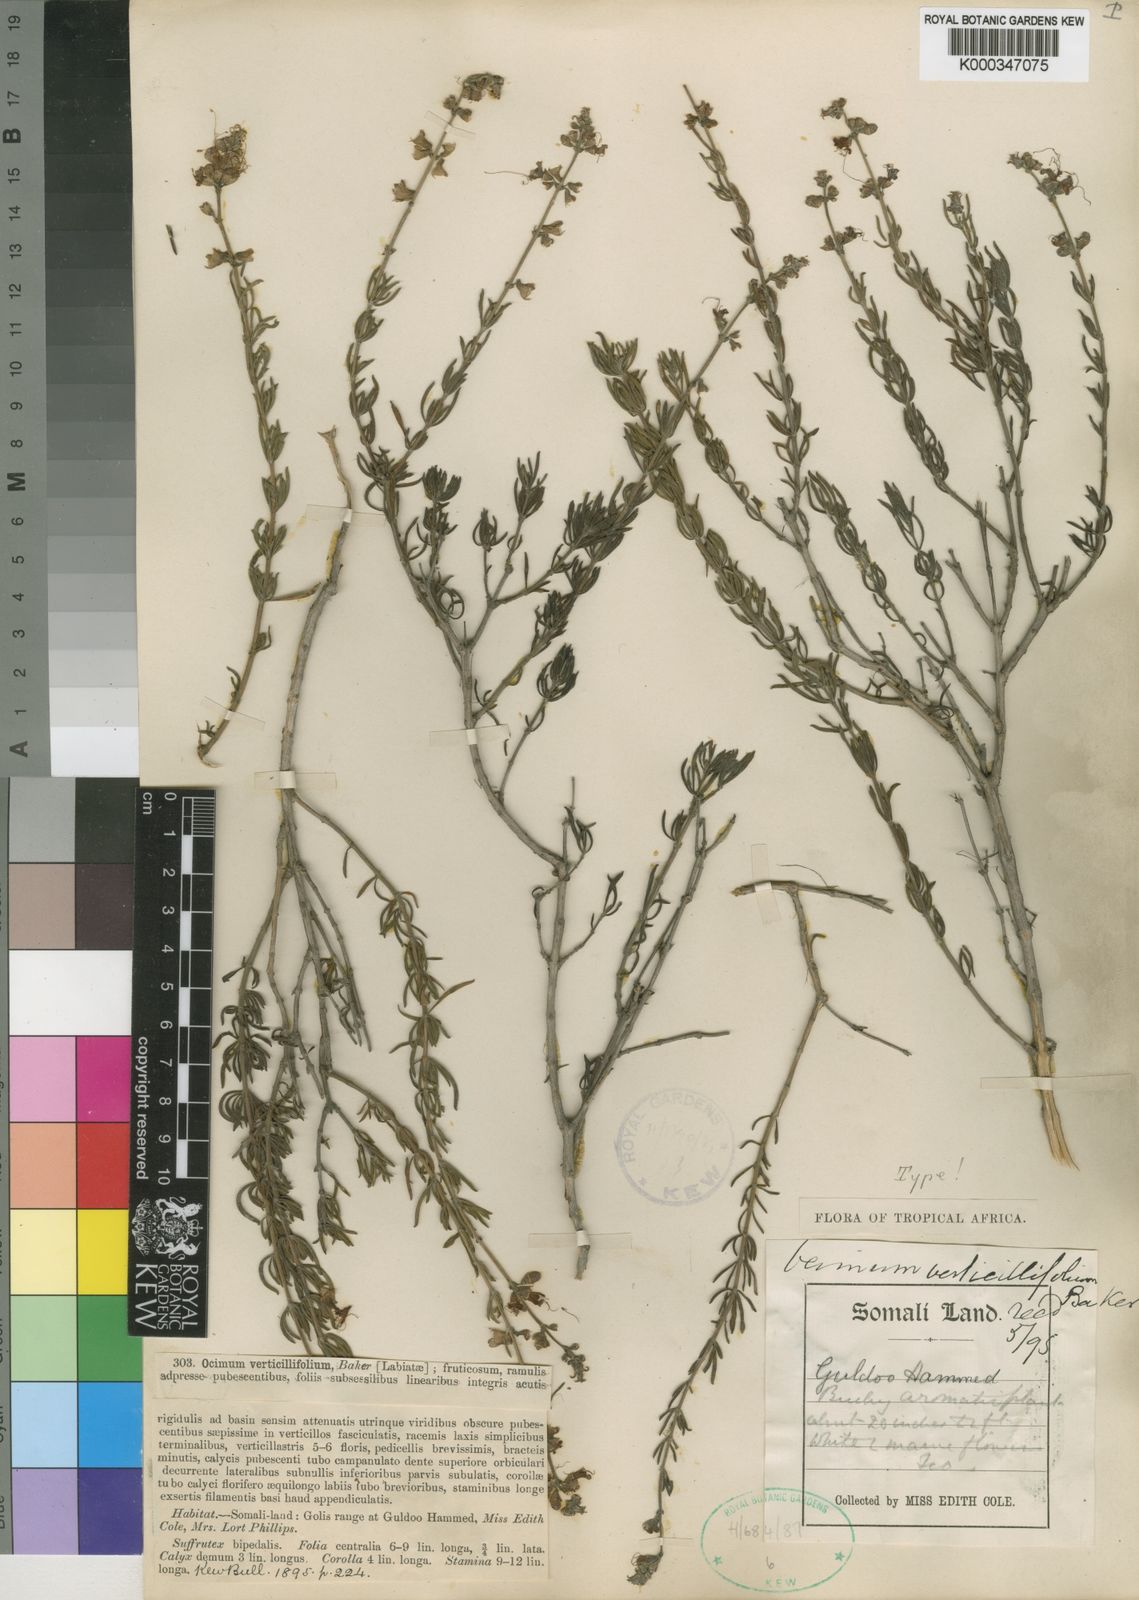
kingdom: Plantae
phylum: Tracheophyta
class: Magnoliopsida
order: Lamiales
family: Lamiaceae
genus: Ocimum
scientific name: Ocimum verticillifolium
